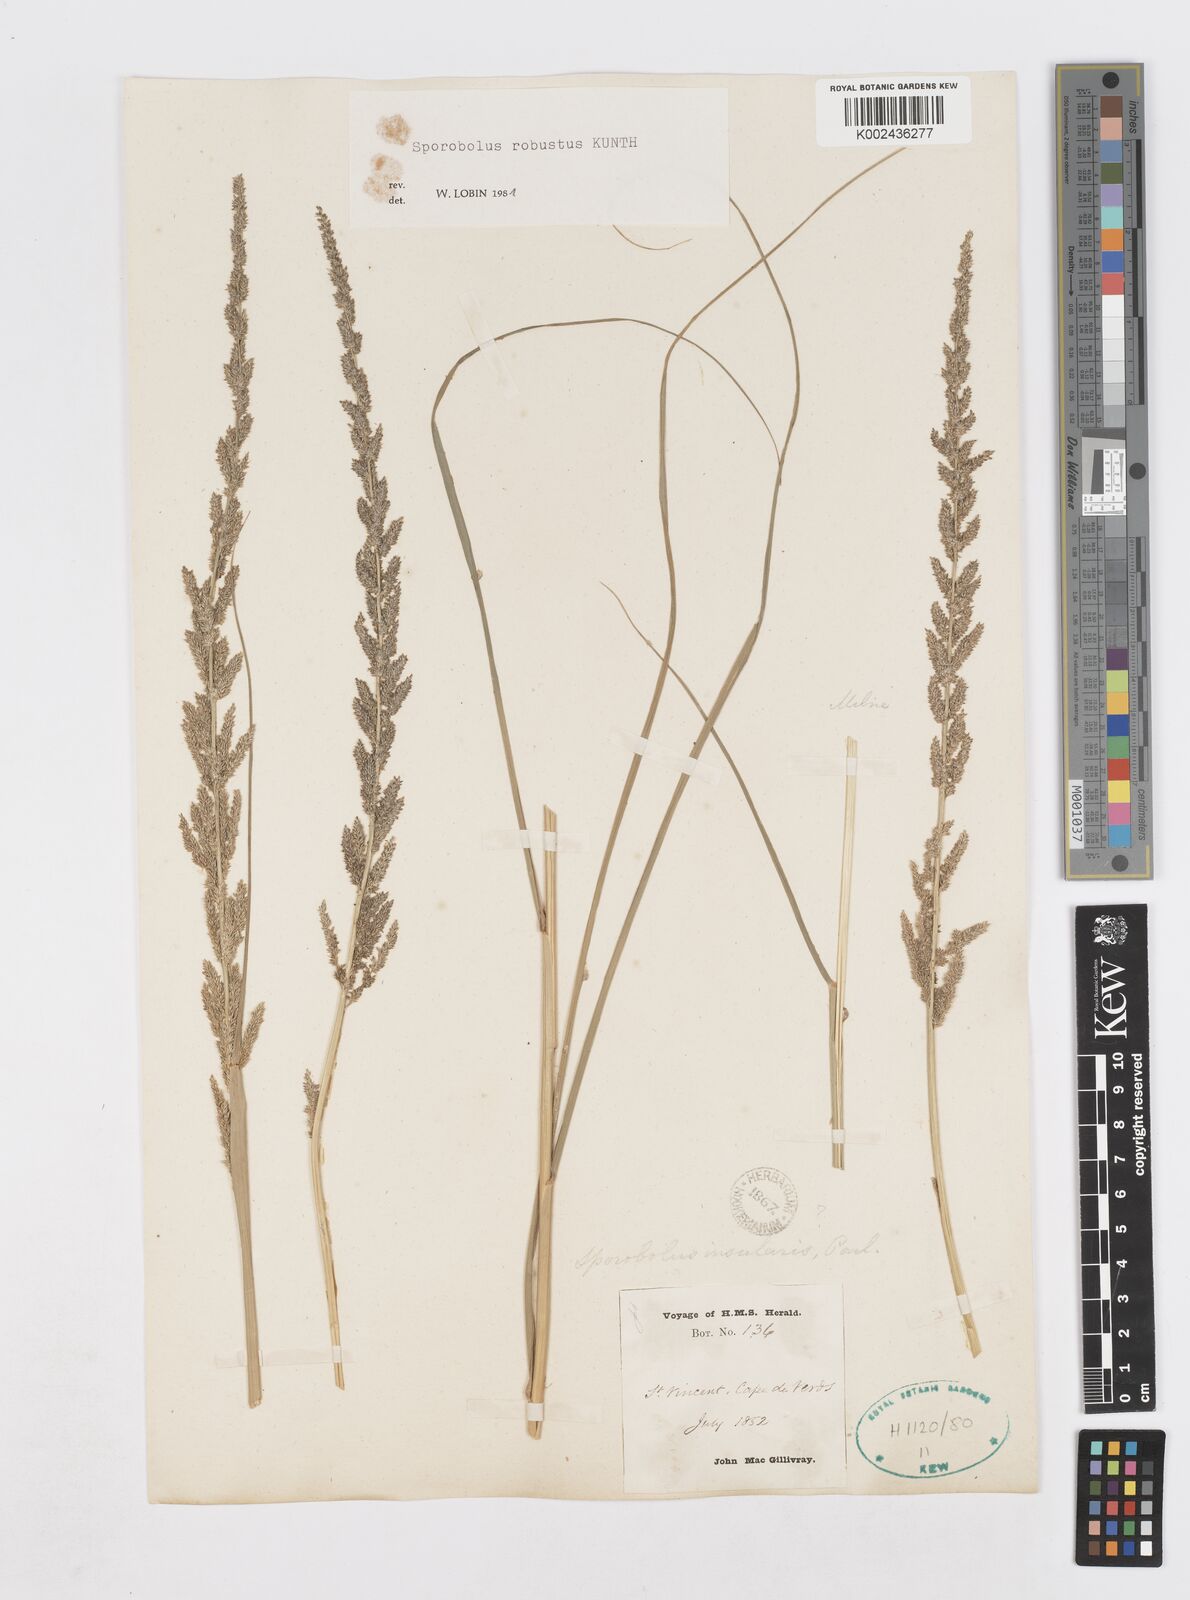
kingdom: Plantae
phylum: Tracheophyta
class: Liliopsida
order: Poales
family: Poaceae
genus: Sporobolus
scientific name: Sporobolus robustus
